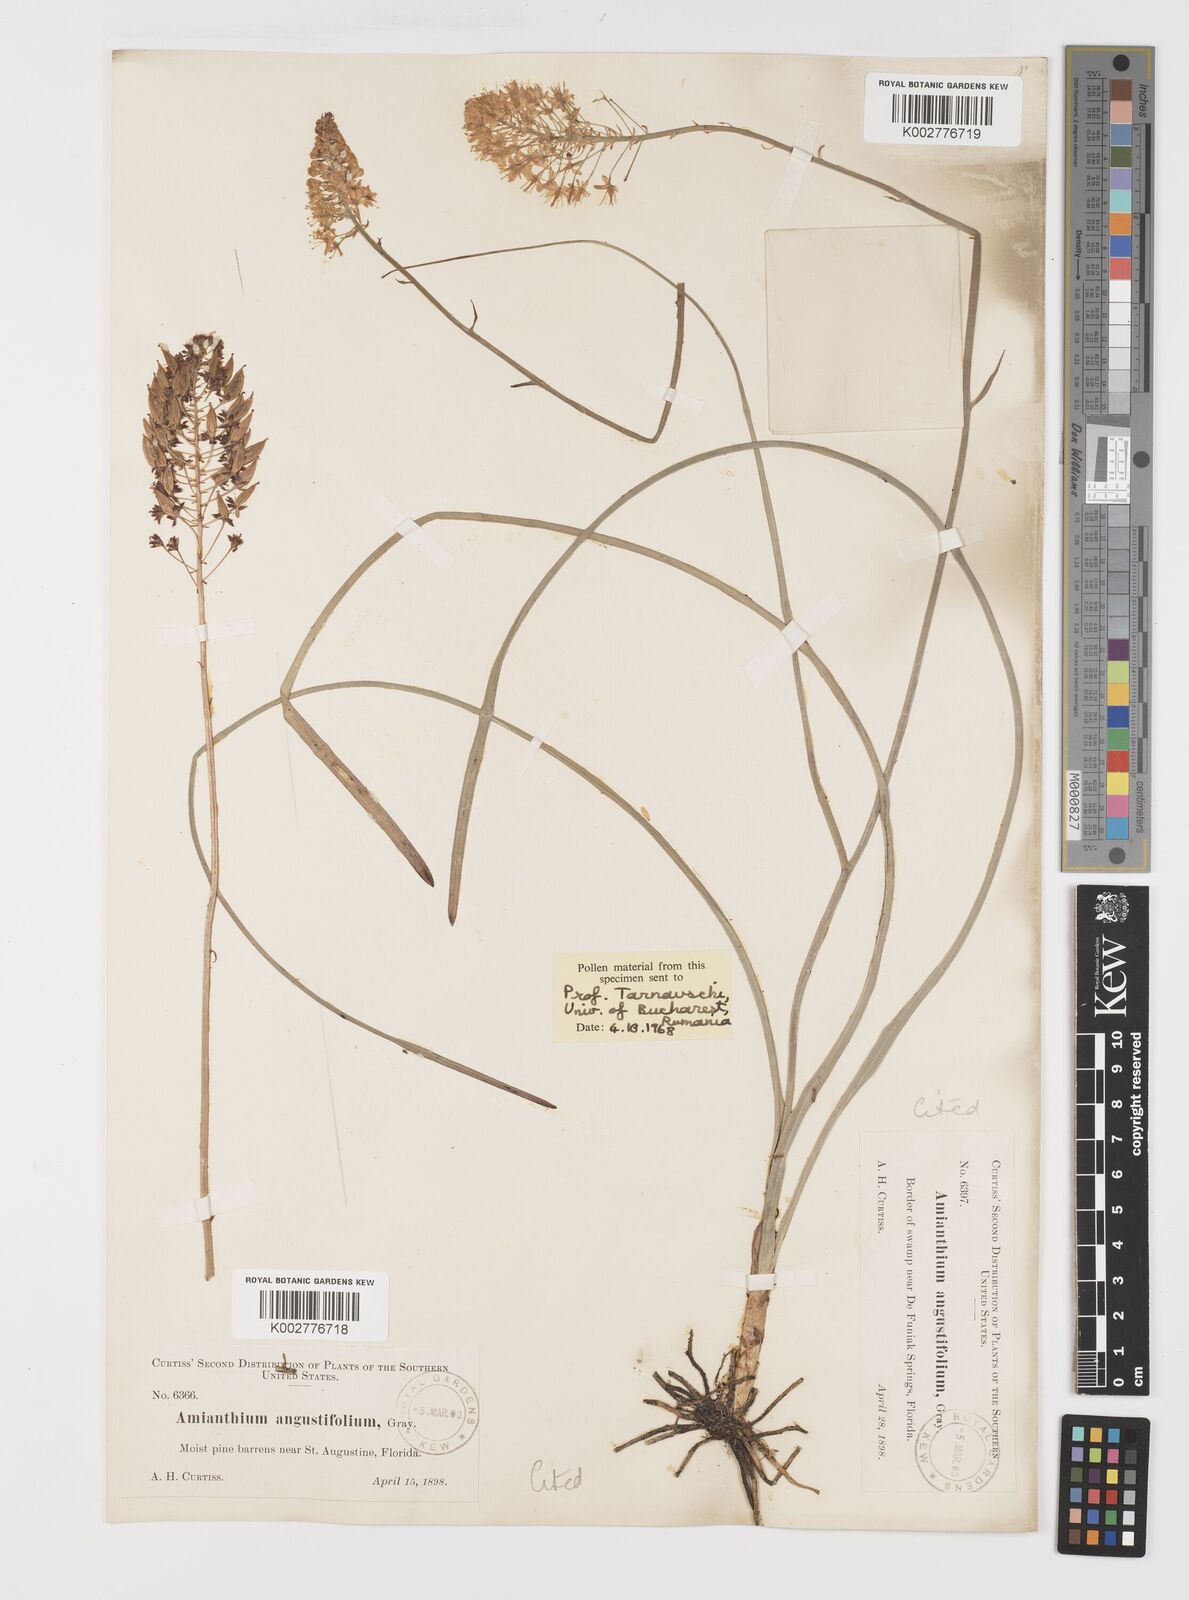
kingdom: Plantae
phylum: Tracheophyta
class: Liliopsida
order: Liliales
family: Melanthiaceae
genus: Stenanthium
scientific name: Stenanthium densum
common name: Crow-poison
